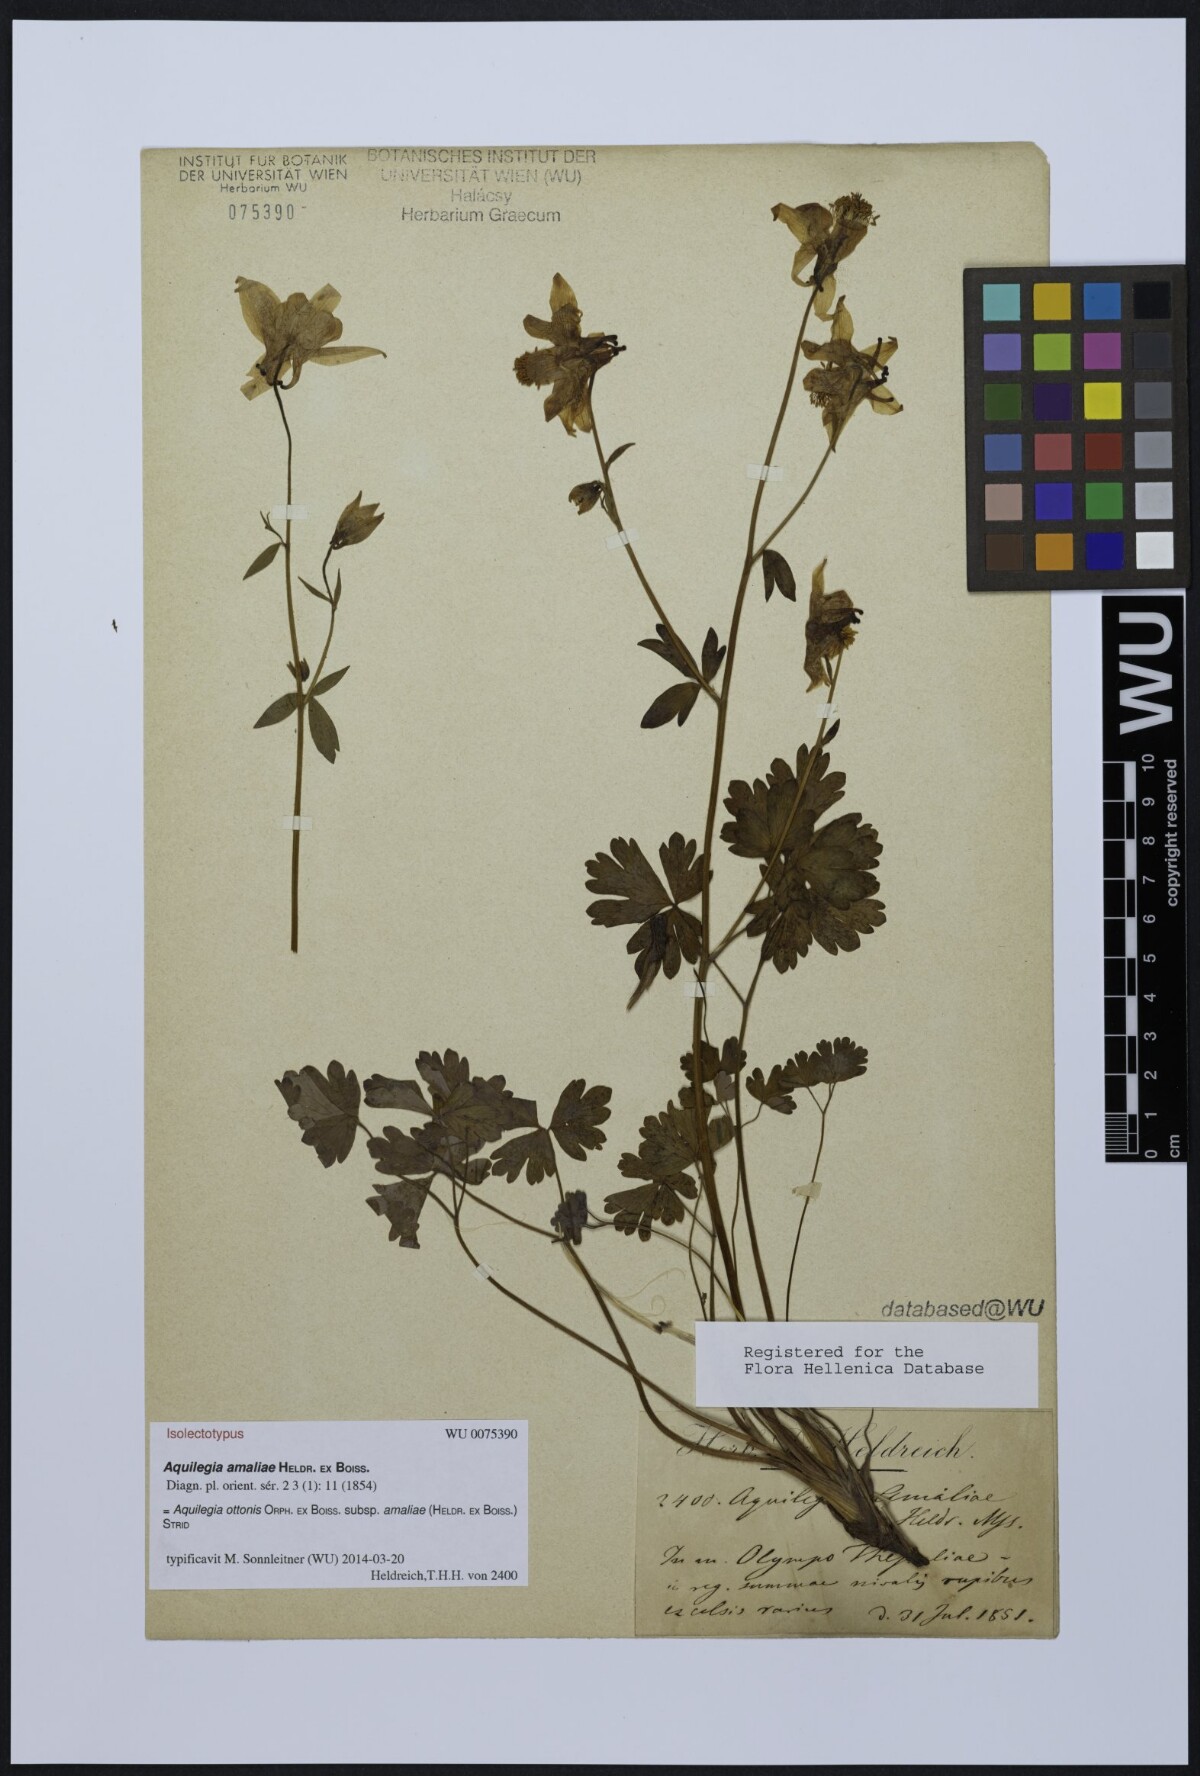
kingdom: Plantae
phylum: Tracheophyta
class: Magnoliopsida
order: Ranunculales
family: Ranunculaceae
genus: Aquilegia
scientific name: Aquilegia ottonis
